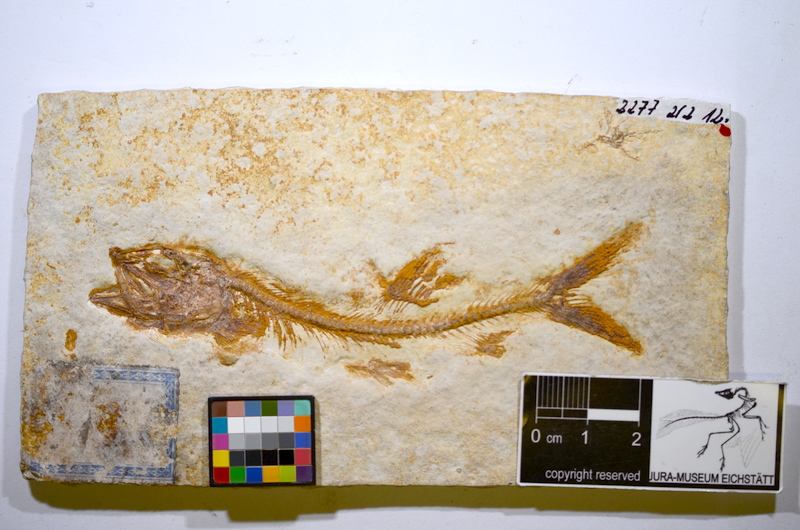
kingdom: Animalia
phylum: Chordata
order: Elopiformes
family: Anaethalionidae
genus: Anaethalion
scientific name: Anaethalion angustus
